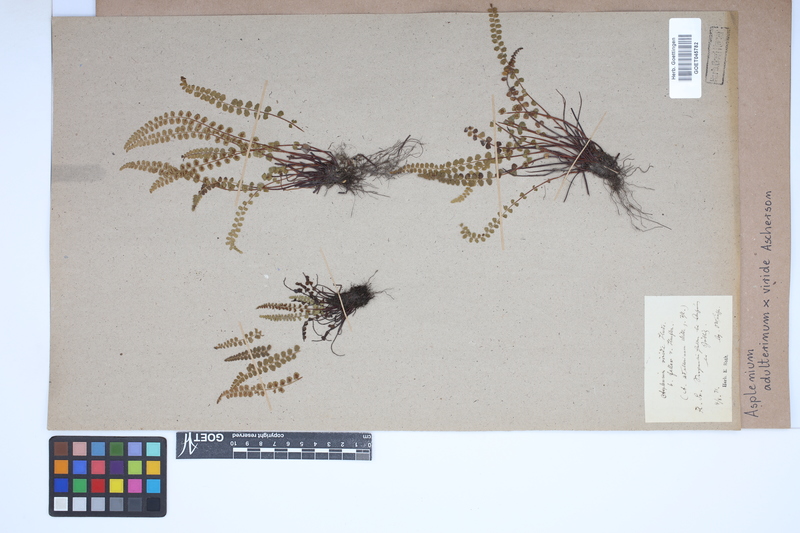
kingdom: Plantae
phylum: Tracheophyta
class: Polypodiopsida
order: Polypodiales
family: Aspleniaceae
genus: Asplenium
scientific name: Asplenium
